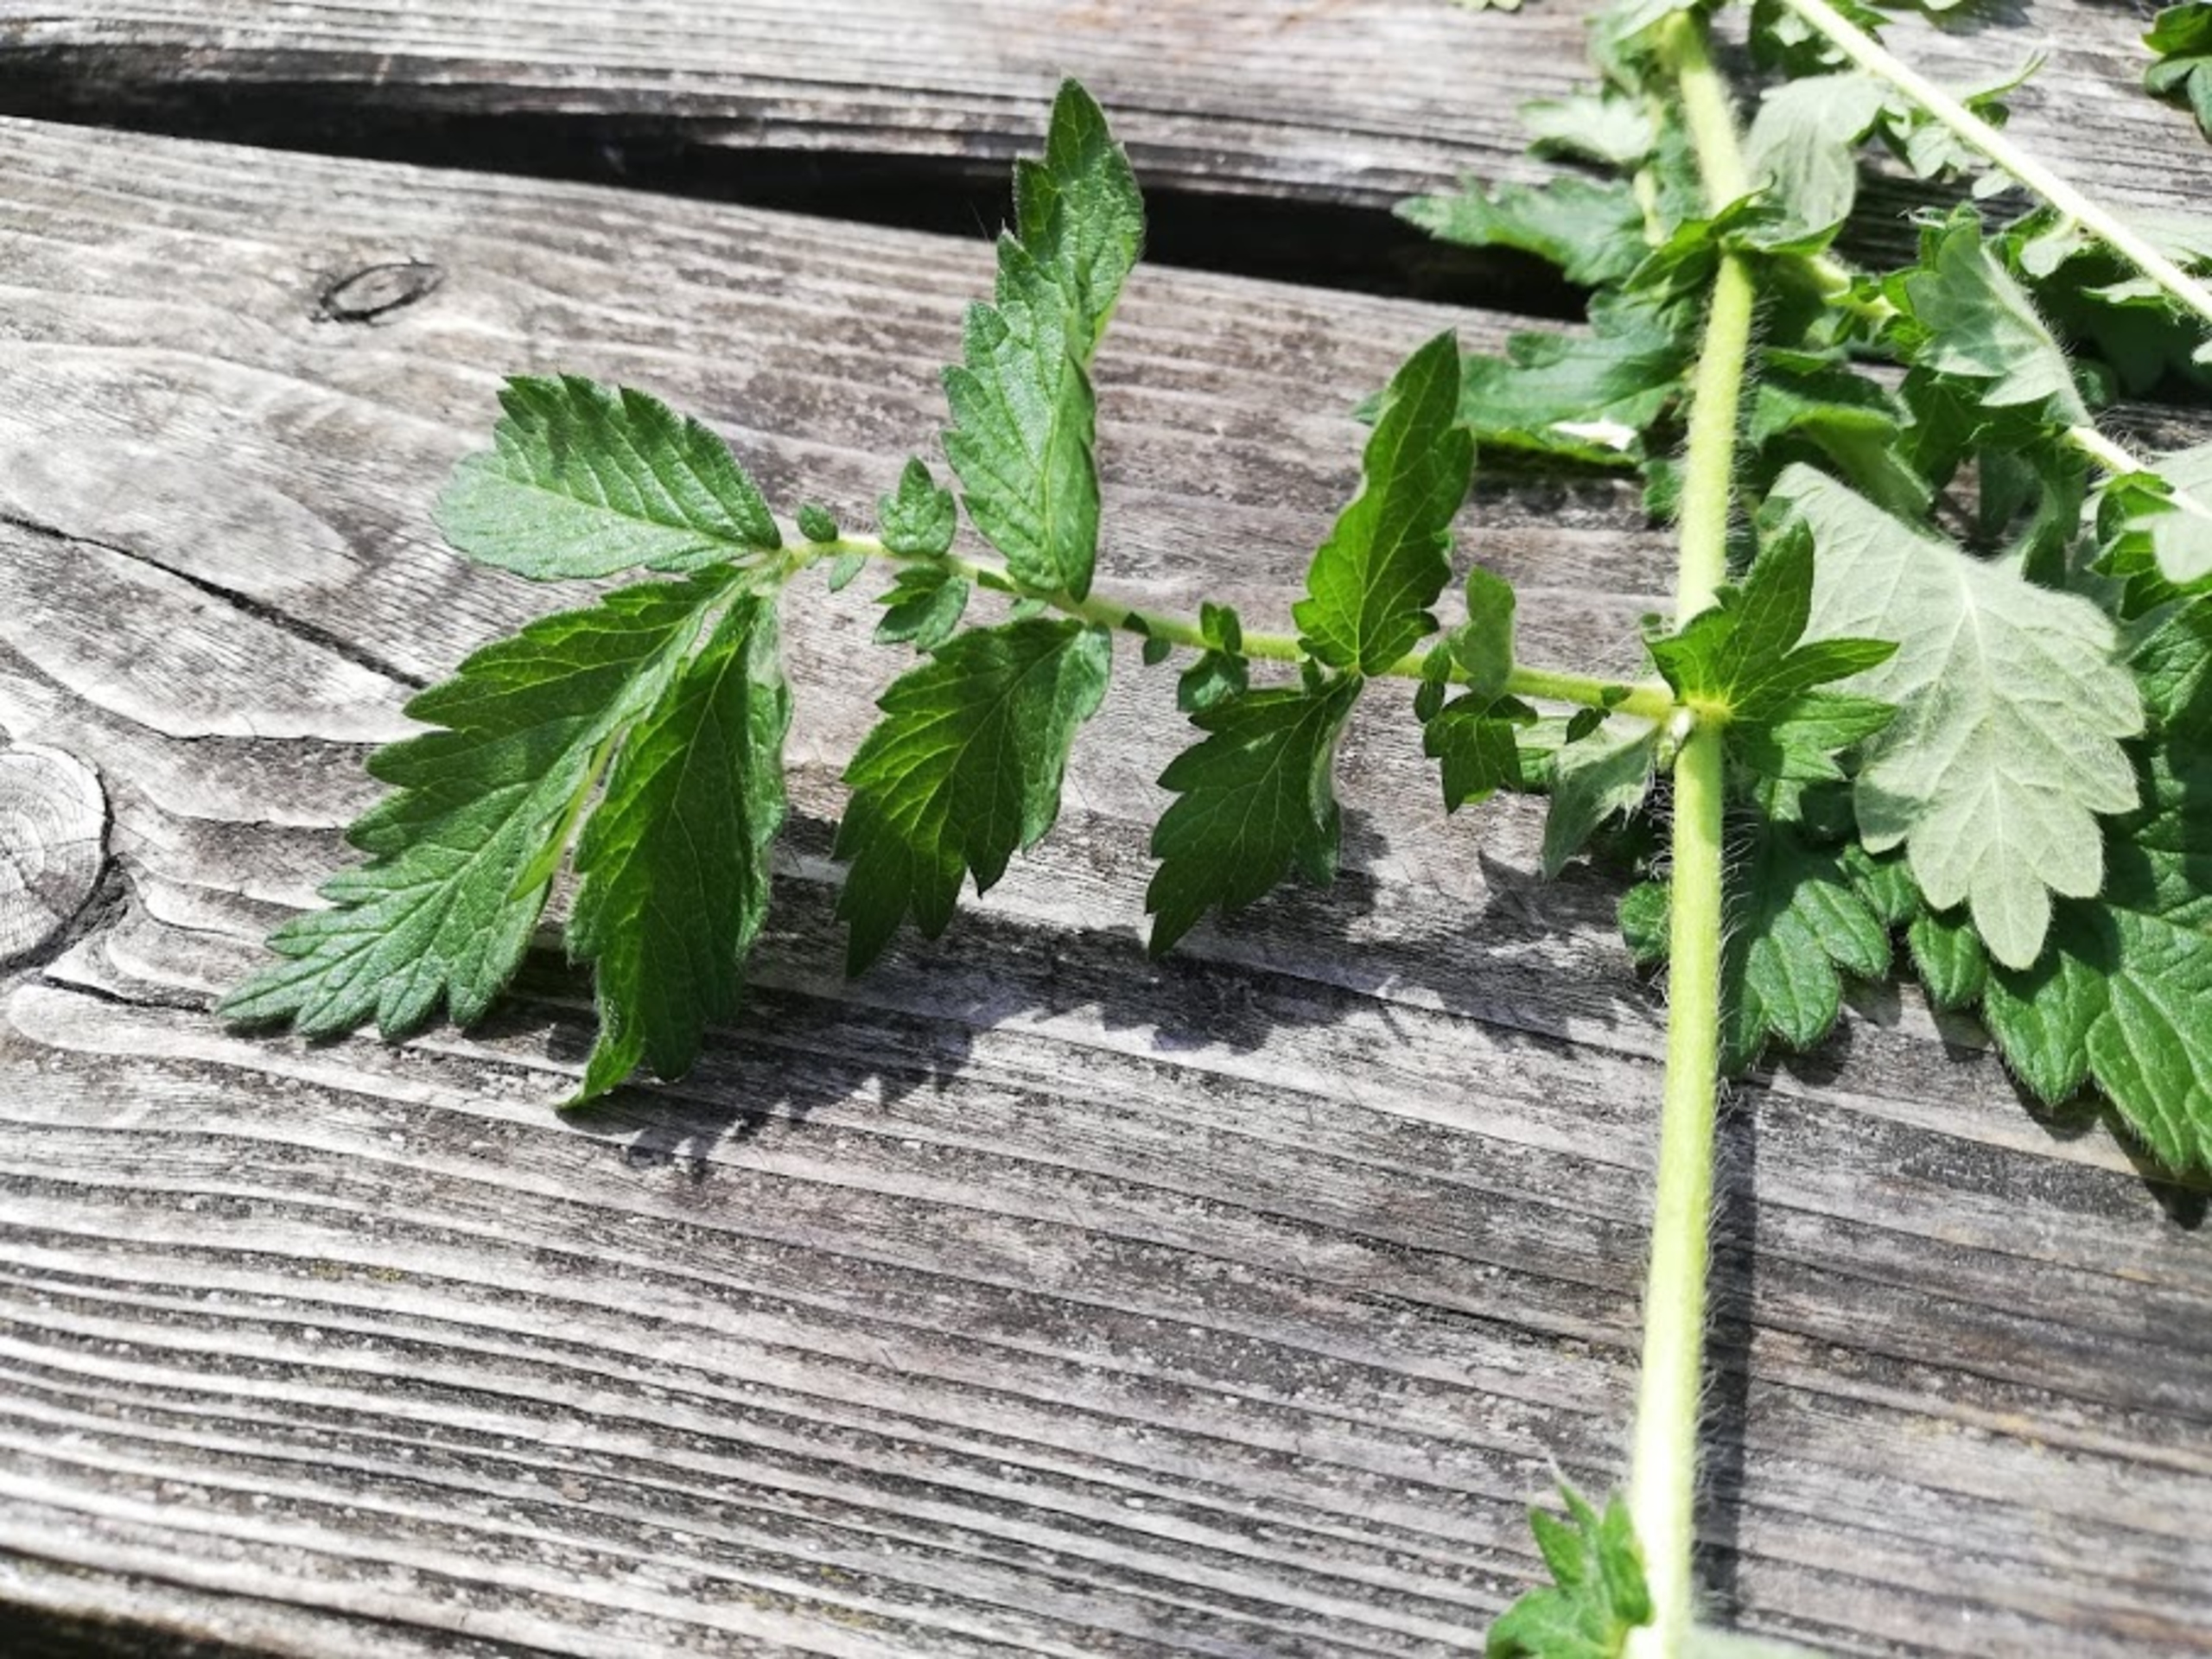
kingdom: Plantae
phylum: Tracheophyta
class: Magnoliopsida
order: Rosales
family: Rosaceae
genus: Agrimonia
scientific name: Agrimonia eupatoria
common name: Almindelig agermåne
